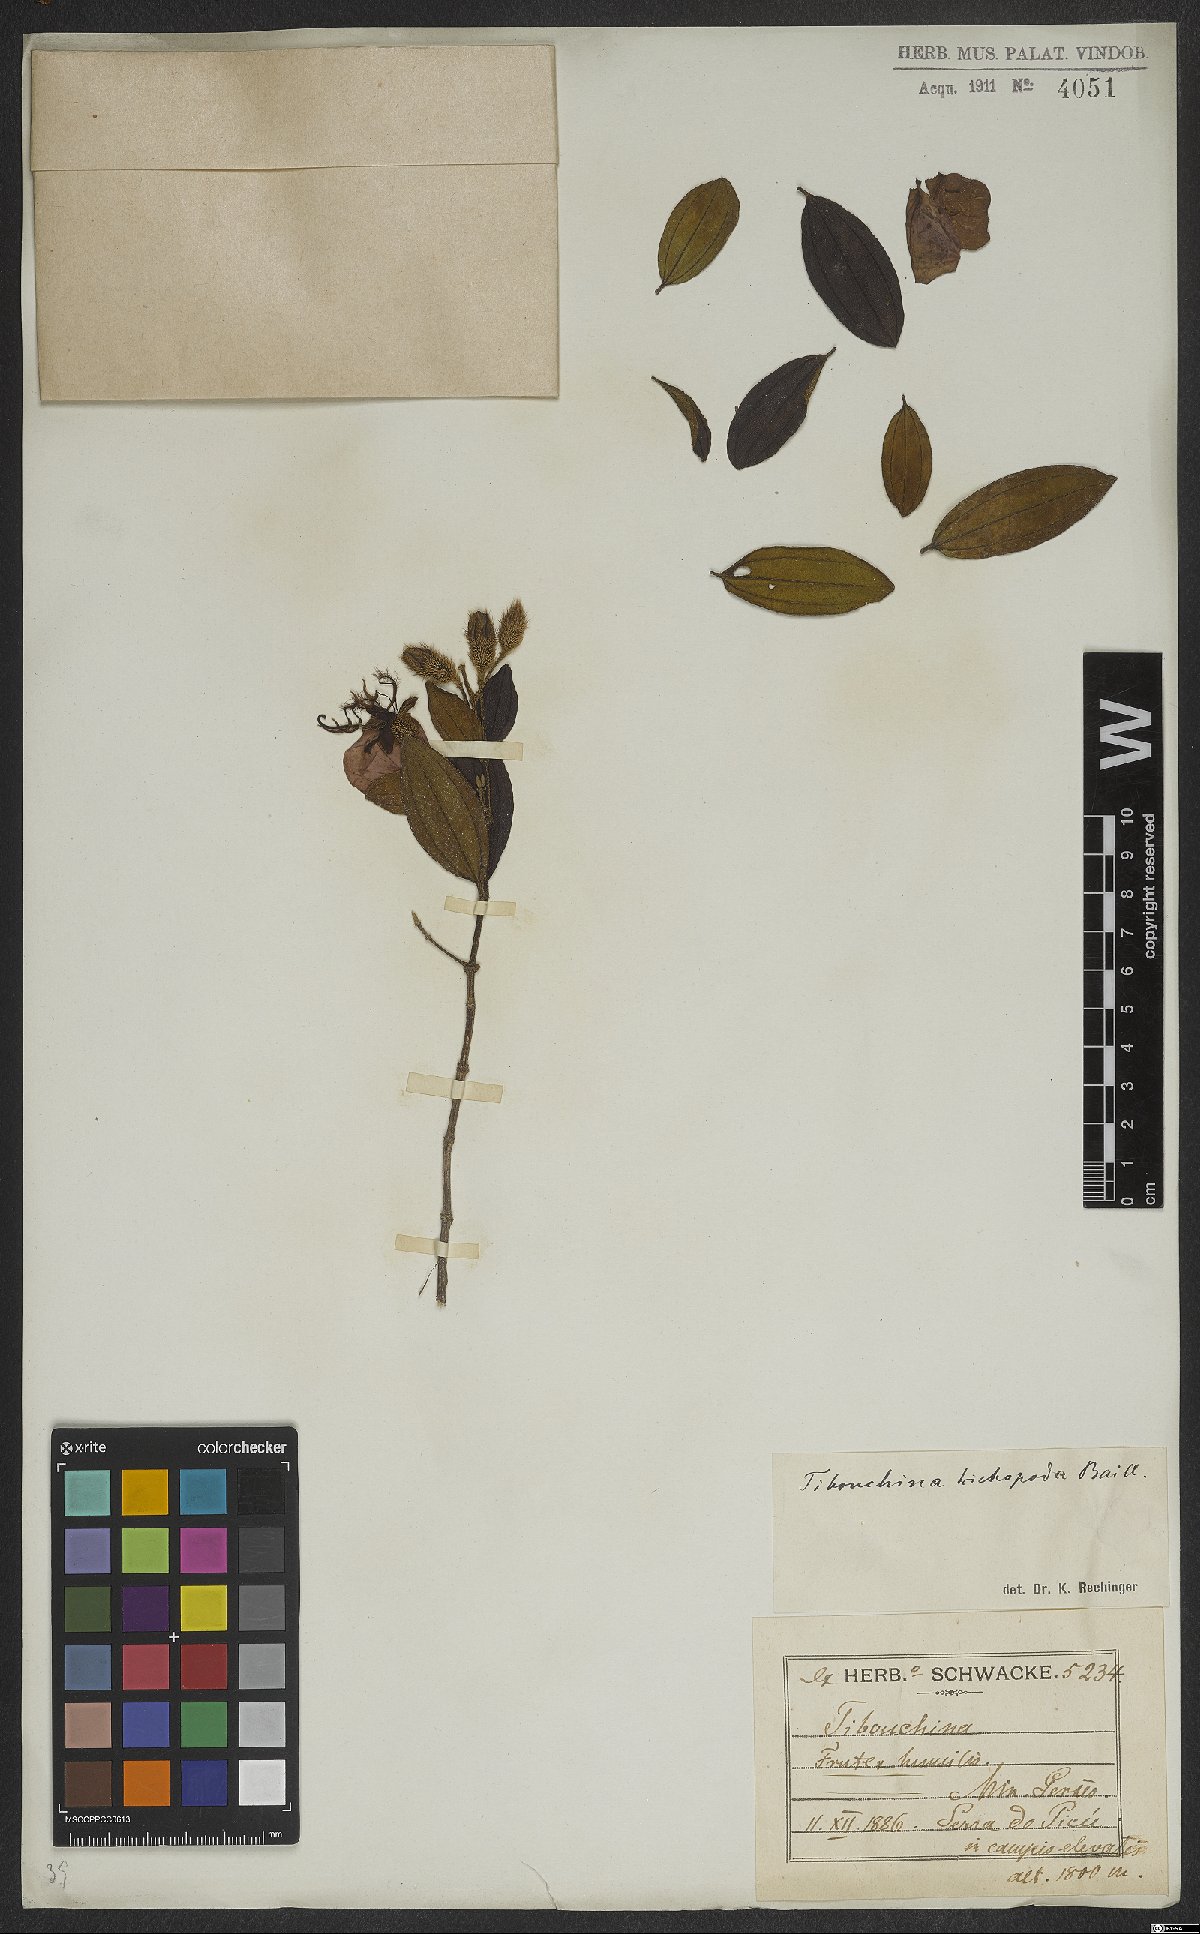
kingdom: Plantae
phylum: Tracheophyta
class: Magnoliopsida
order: Myrtales
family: Melastomataceae
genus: Pleroma
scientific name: Pleroma trichopodum
